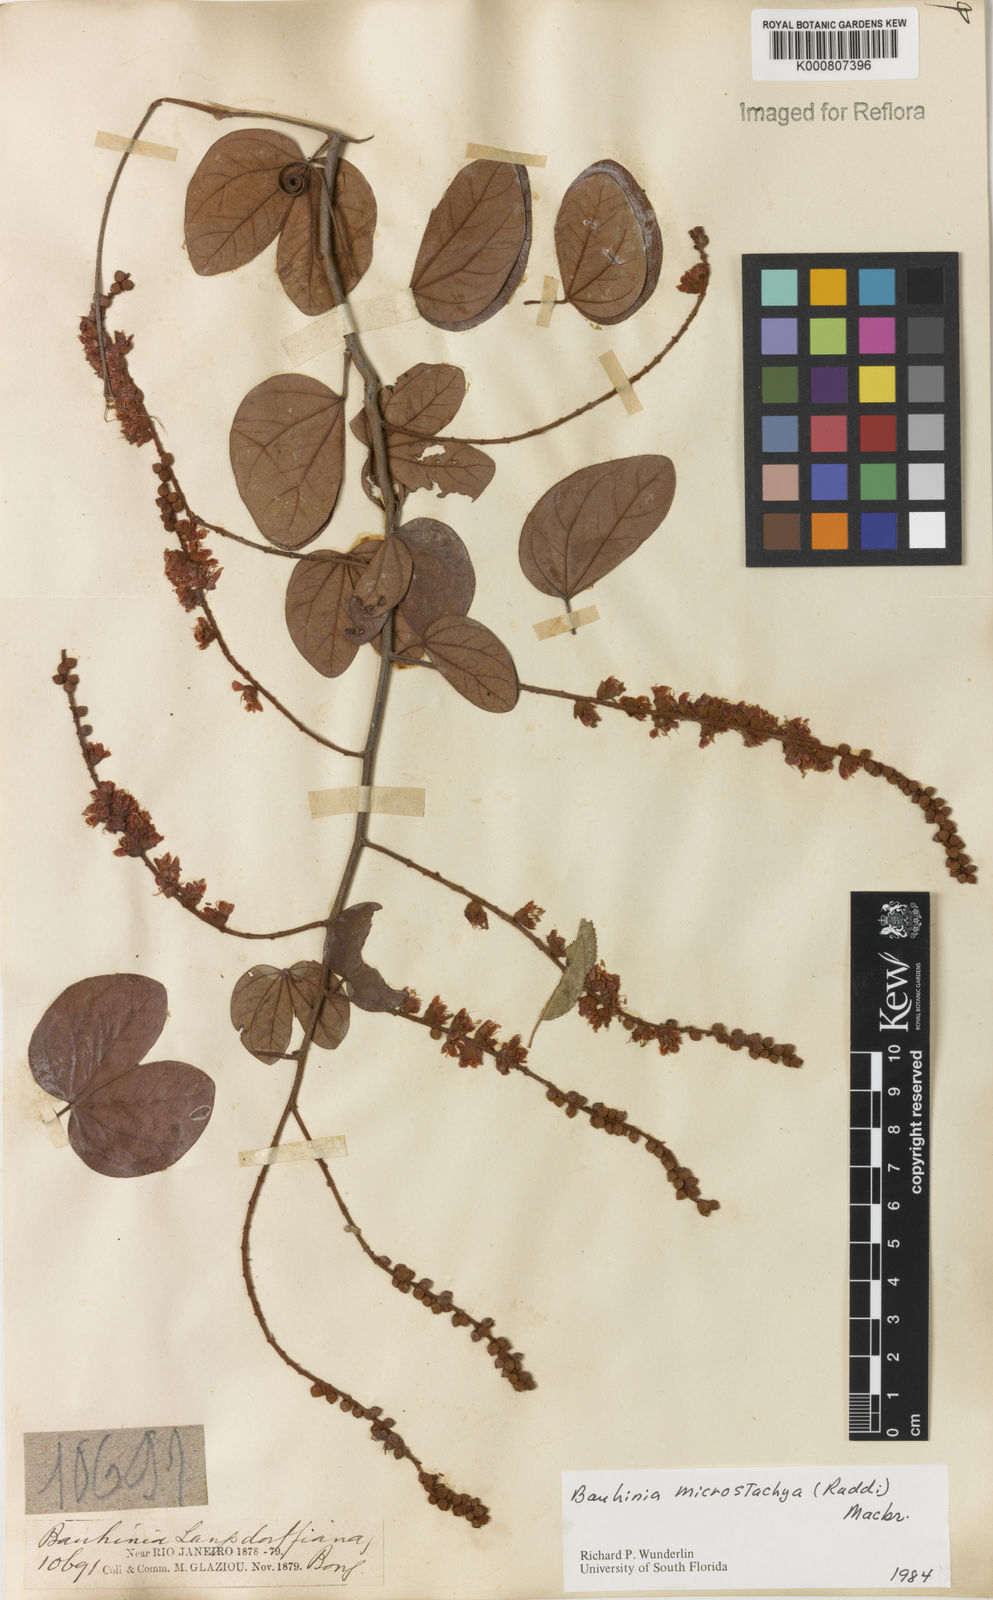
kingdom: Plantae
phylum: Tracheophyta
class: Magnoliopsida
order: Fabales
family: Fabaceae
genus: Schnella
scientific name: Schnella microstachya
